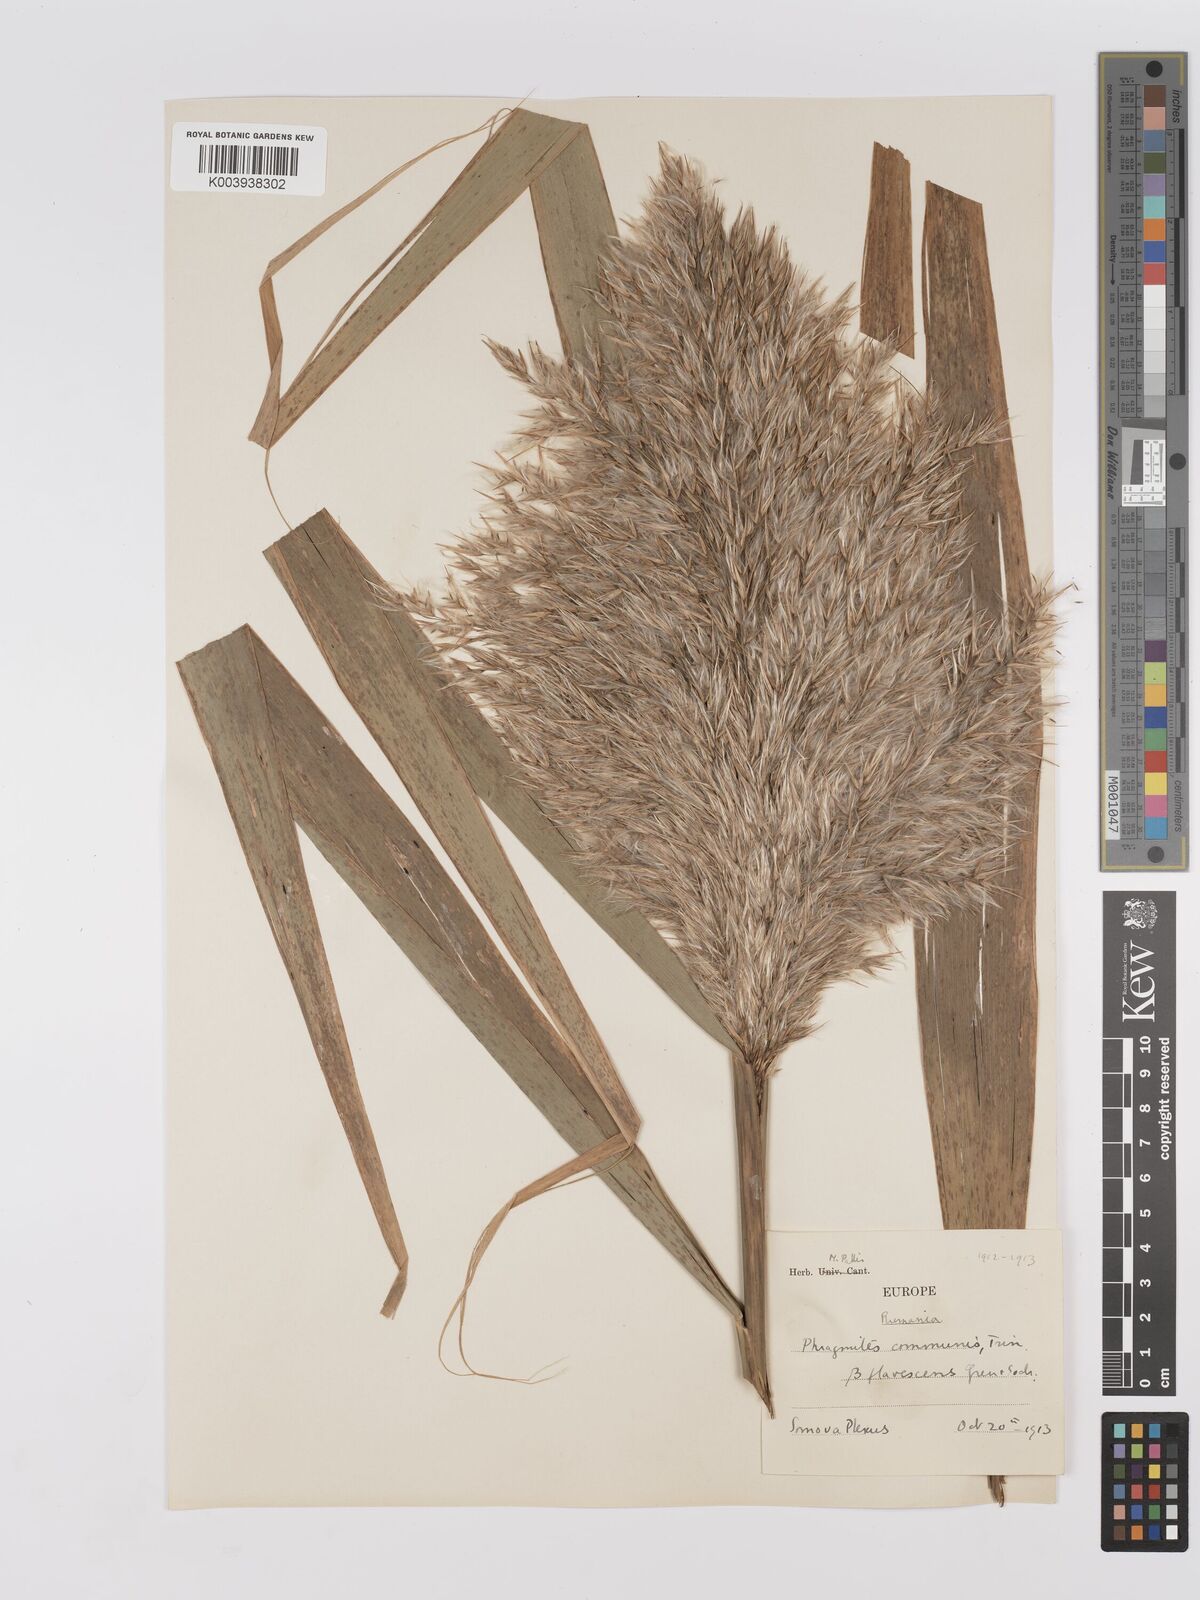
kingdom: Plantae
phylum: Tracheophyta
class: Liliopsida
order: Poales
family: Poaceae
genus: Phragmites
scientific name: Phragmites australis
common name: Common reed
